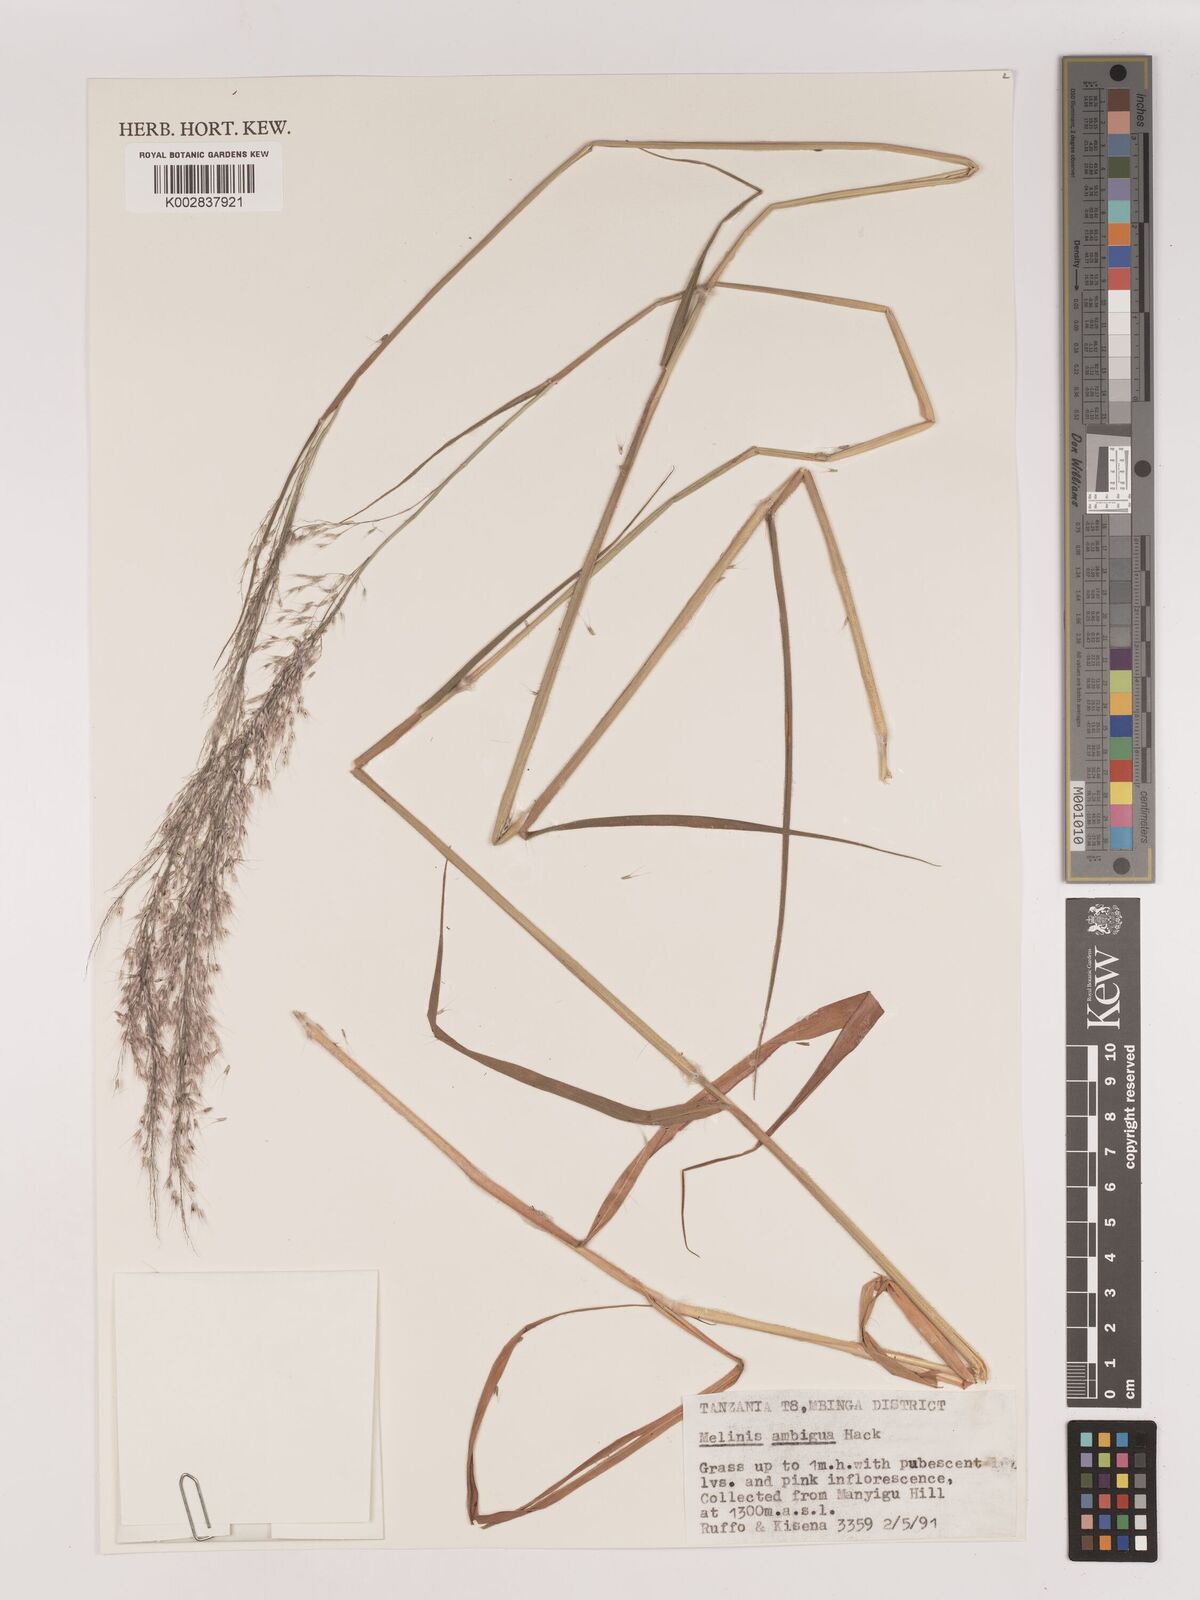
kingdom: Plantae
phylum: Tracheophyta
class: Liliopsida
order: Poales
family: Poaceae
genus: Melinis
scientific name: Melinis ambigua
